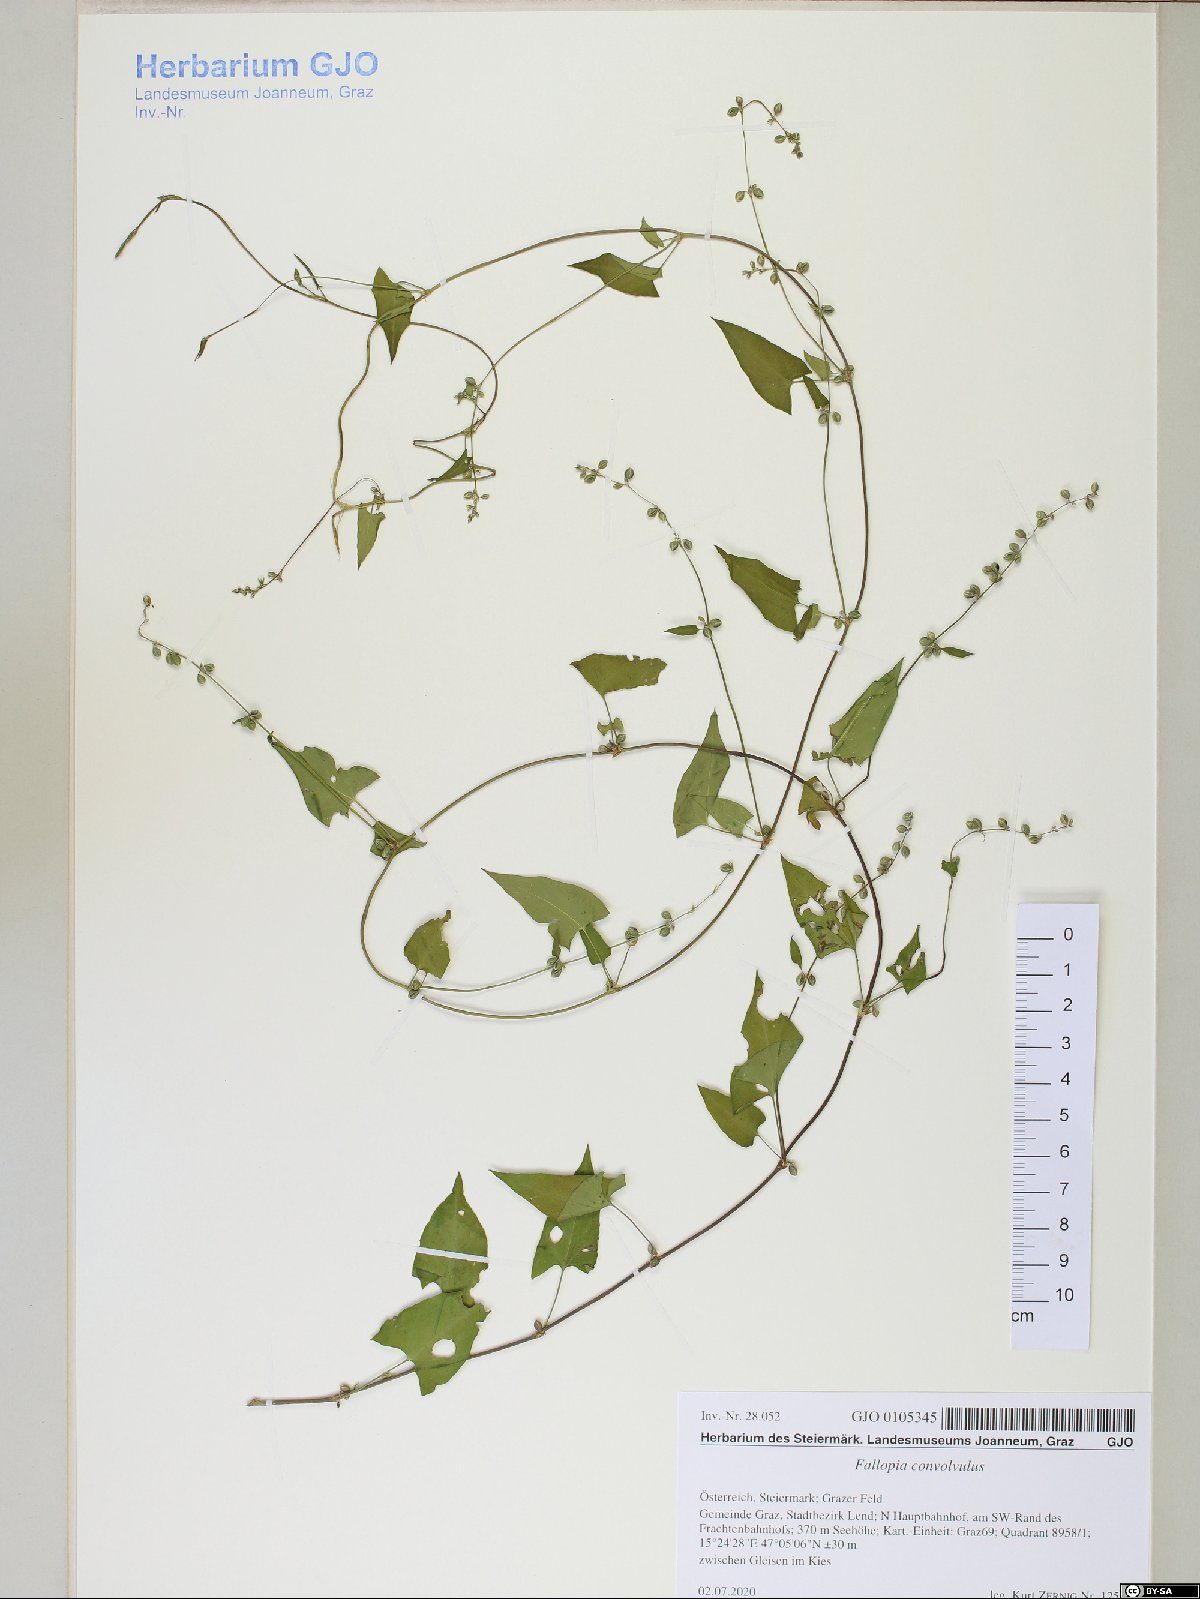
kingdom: Plantae
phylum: Tracheophyta
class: Magnoliopsida
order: Caryophyllales
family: Polygonaceae
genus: Fallopia
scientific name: Fallopia convolvulus
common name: Black bindweed
